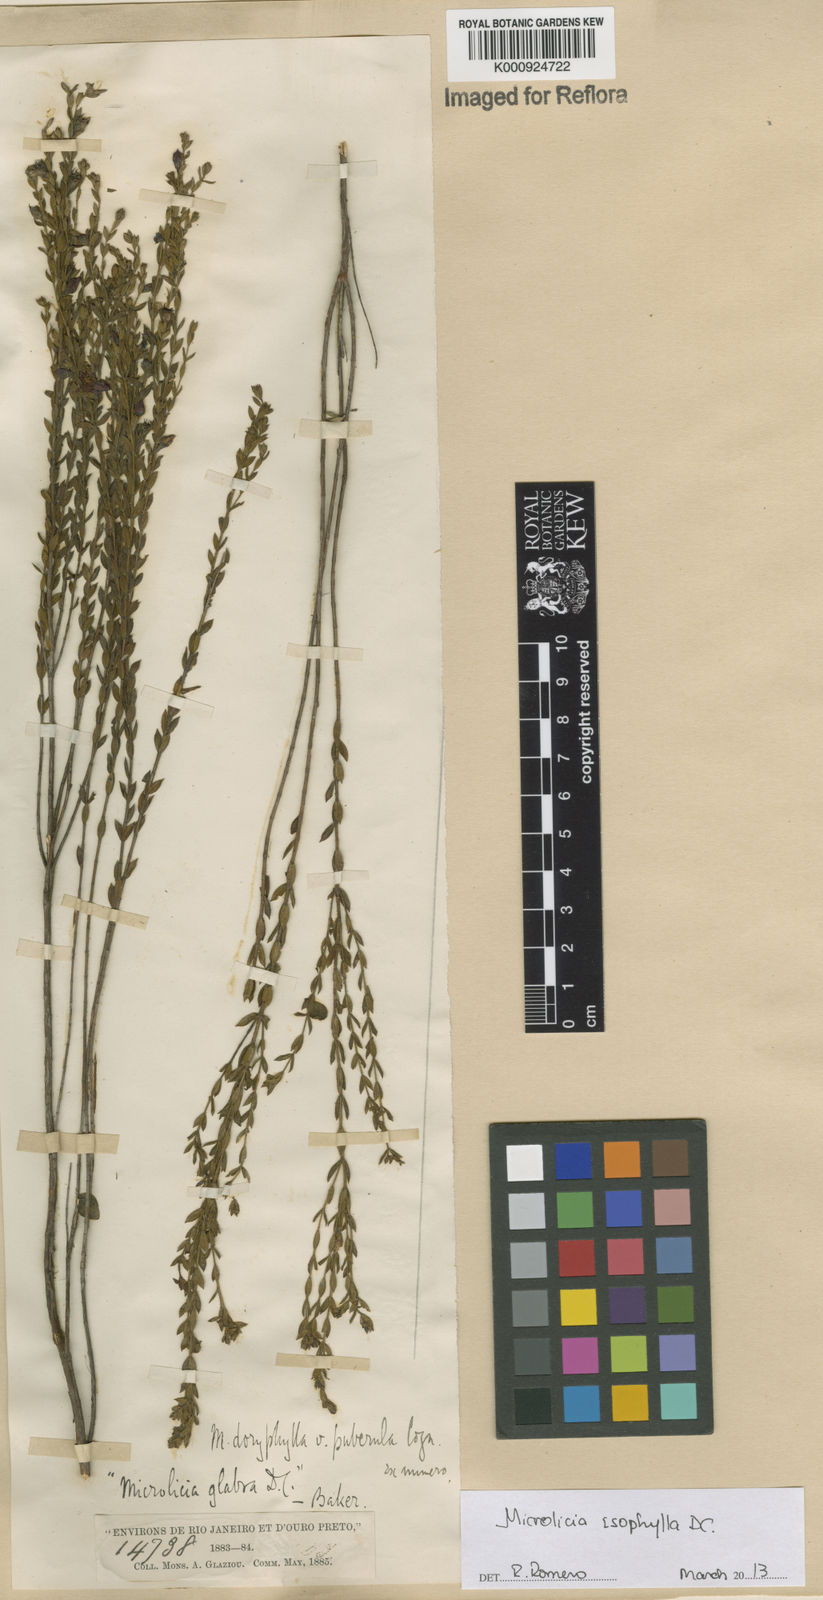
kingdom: Plantae
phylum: Tracheophyta
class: Magnoliopsida
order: Myrtales
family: Melastomataceae
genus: Microlicia
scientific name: Microlicia isophylla
